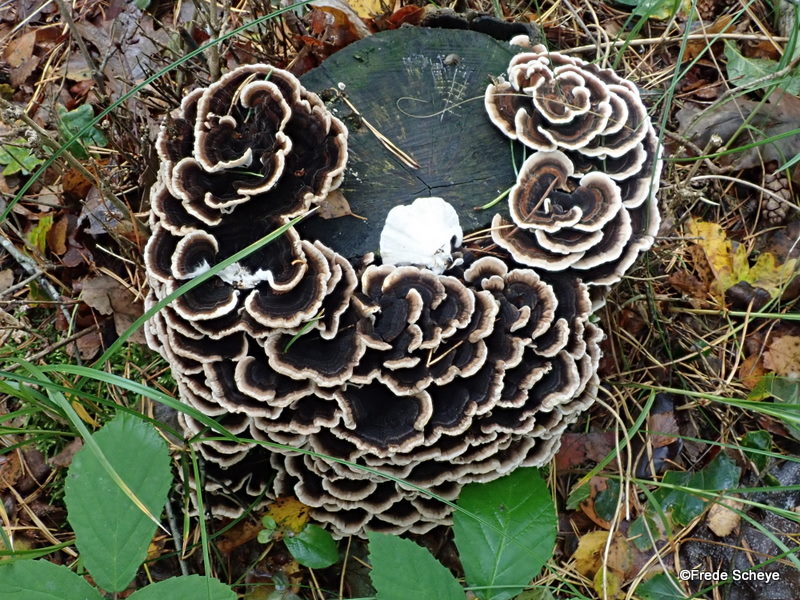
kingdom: Fungi
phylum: Basidiomycota
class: Agaricomycetes
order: Polyporales
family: Polyporaceae
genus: Trametes
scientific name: Trametes versicolor
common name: broget læderporesvamp
